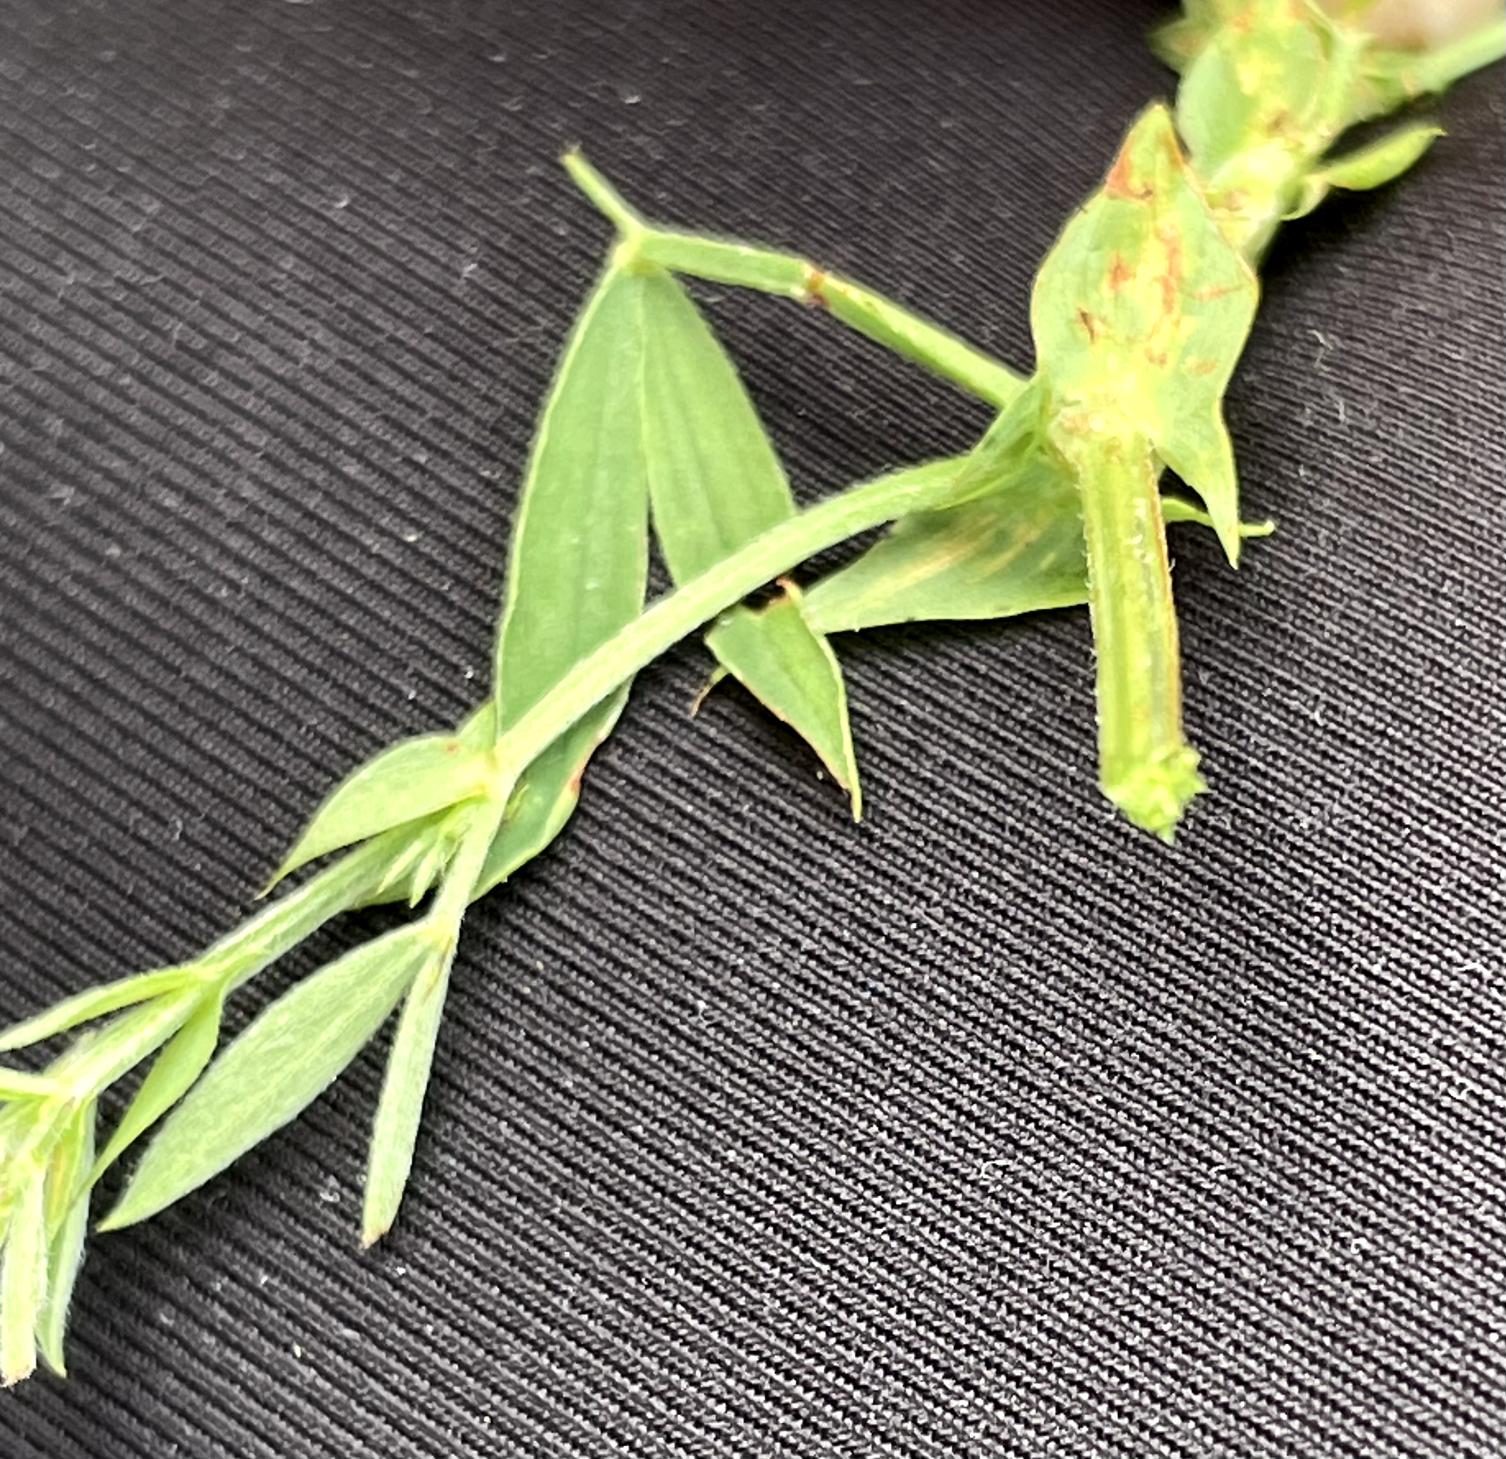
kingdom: Plantae
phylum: Tracheophyta
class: Magnoliopsida
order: Fabales
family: Fabaceae
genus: Lathyrus
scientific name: Lathyrus pratensis
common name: Gul fladbælg
